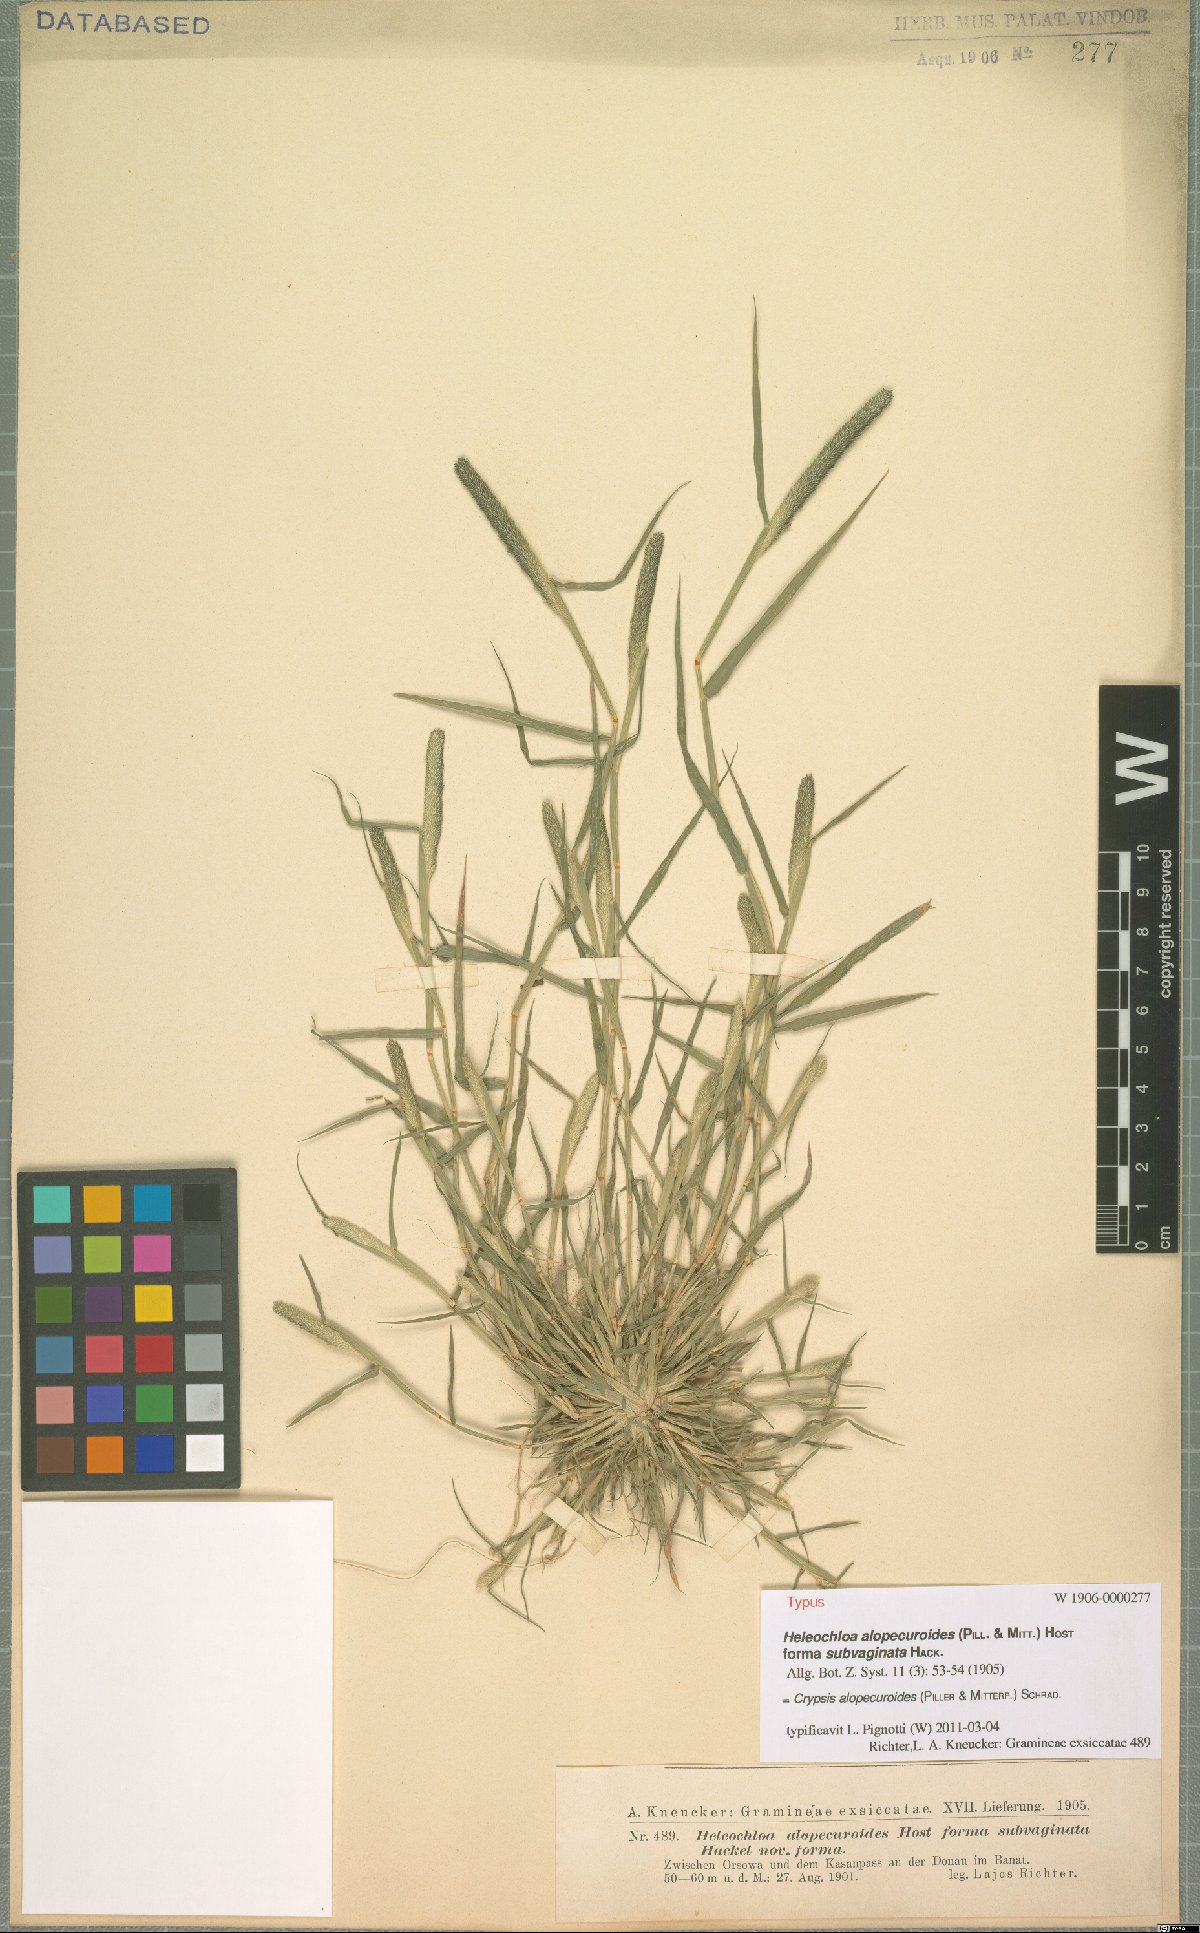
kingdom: Plantae
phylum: Tracheophyta
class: Liliopsida
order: Poales
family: Poaceae
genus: Sporobolus
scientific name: Sporobolus alopecuroides
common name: Foxtail pricklegrass
